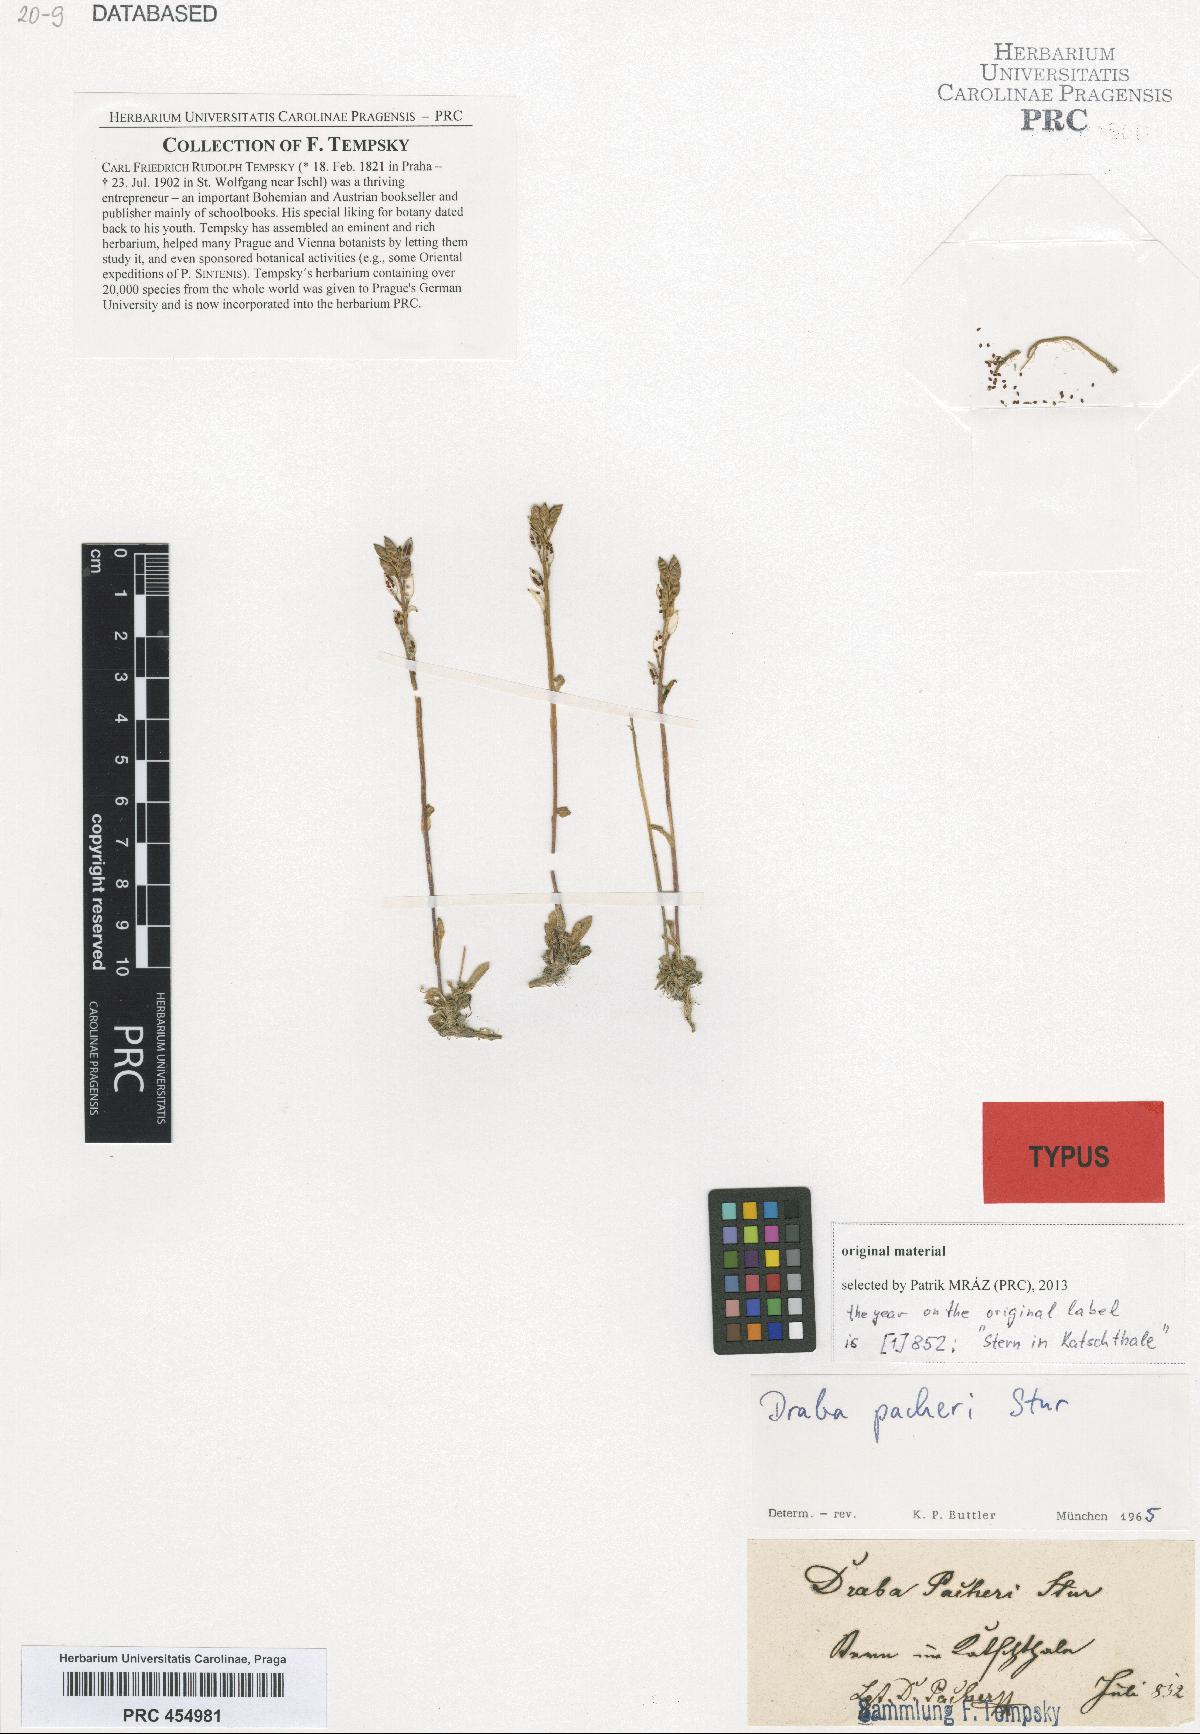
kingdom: Plantae
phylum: Tracheophyta
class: Magnoliopsida
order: Brassicales
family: Brassicaceae
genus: Draba
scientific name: Draba pacheri
